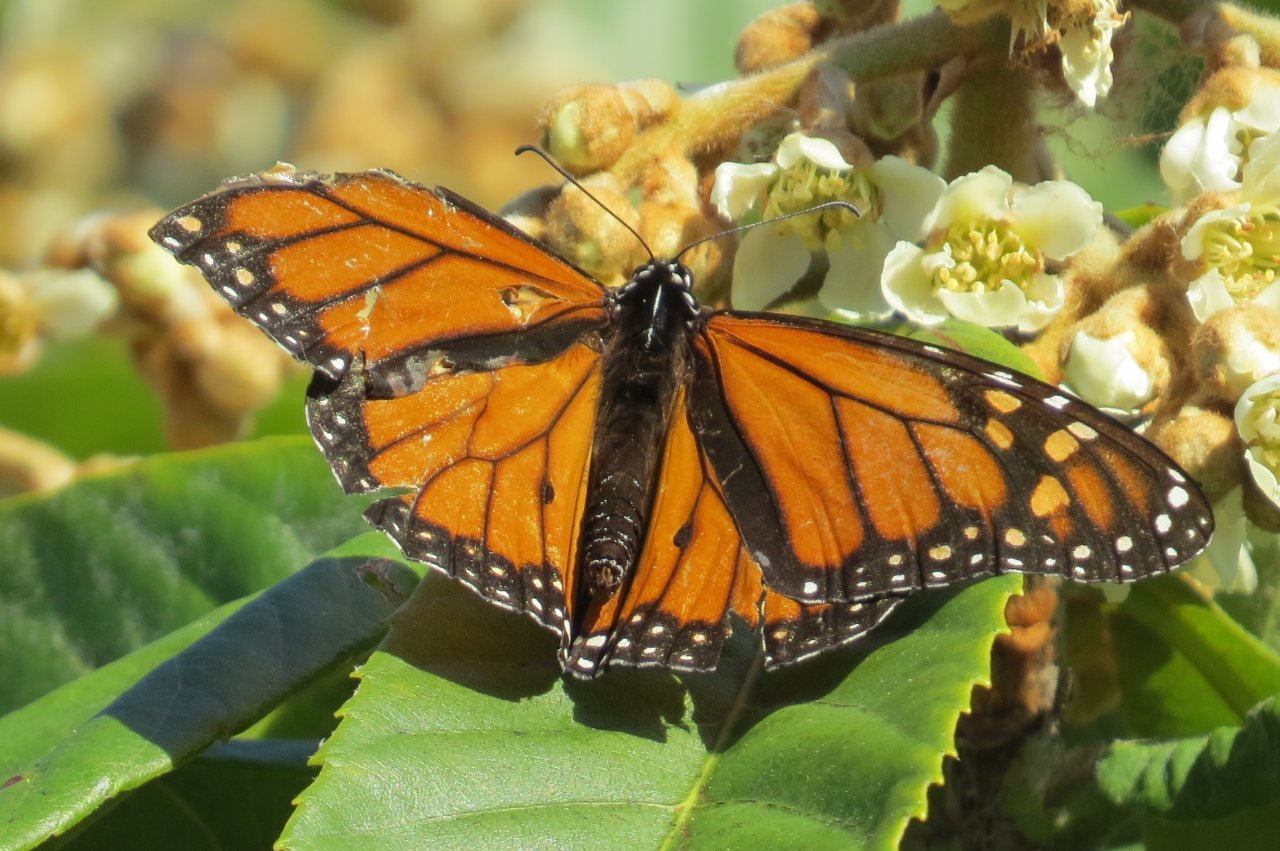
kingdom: Animalia
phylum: Arthropoda
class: Insecta
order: Lepidoptera
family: Nymphalidae
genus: Danaus
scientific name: Danaus plexippus
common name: Monarch
